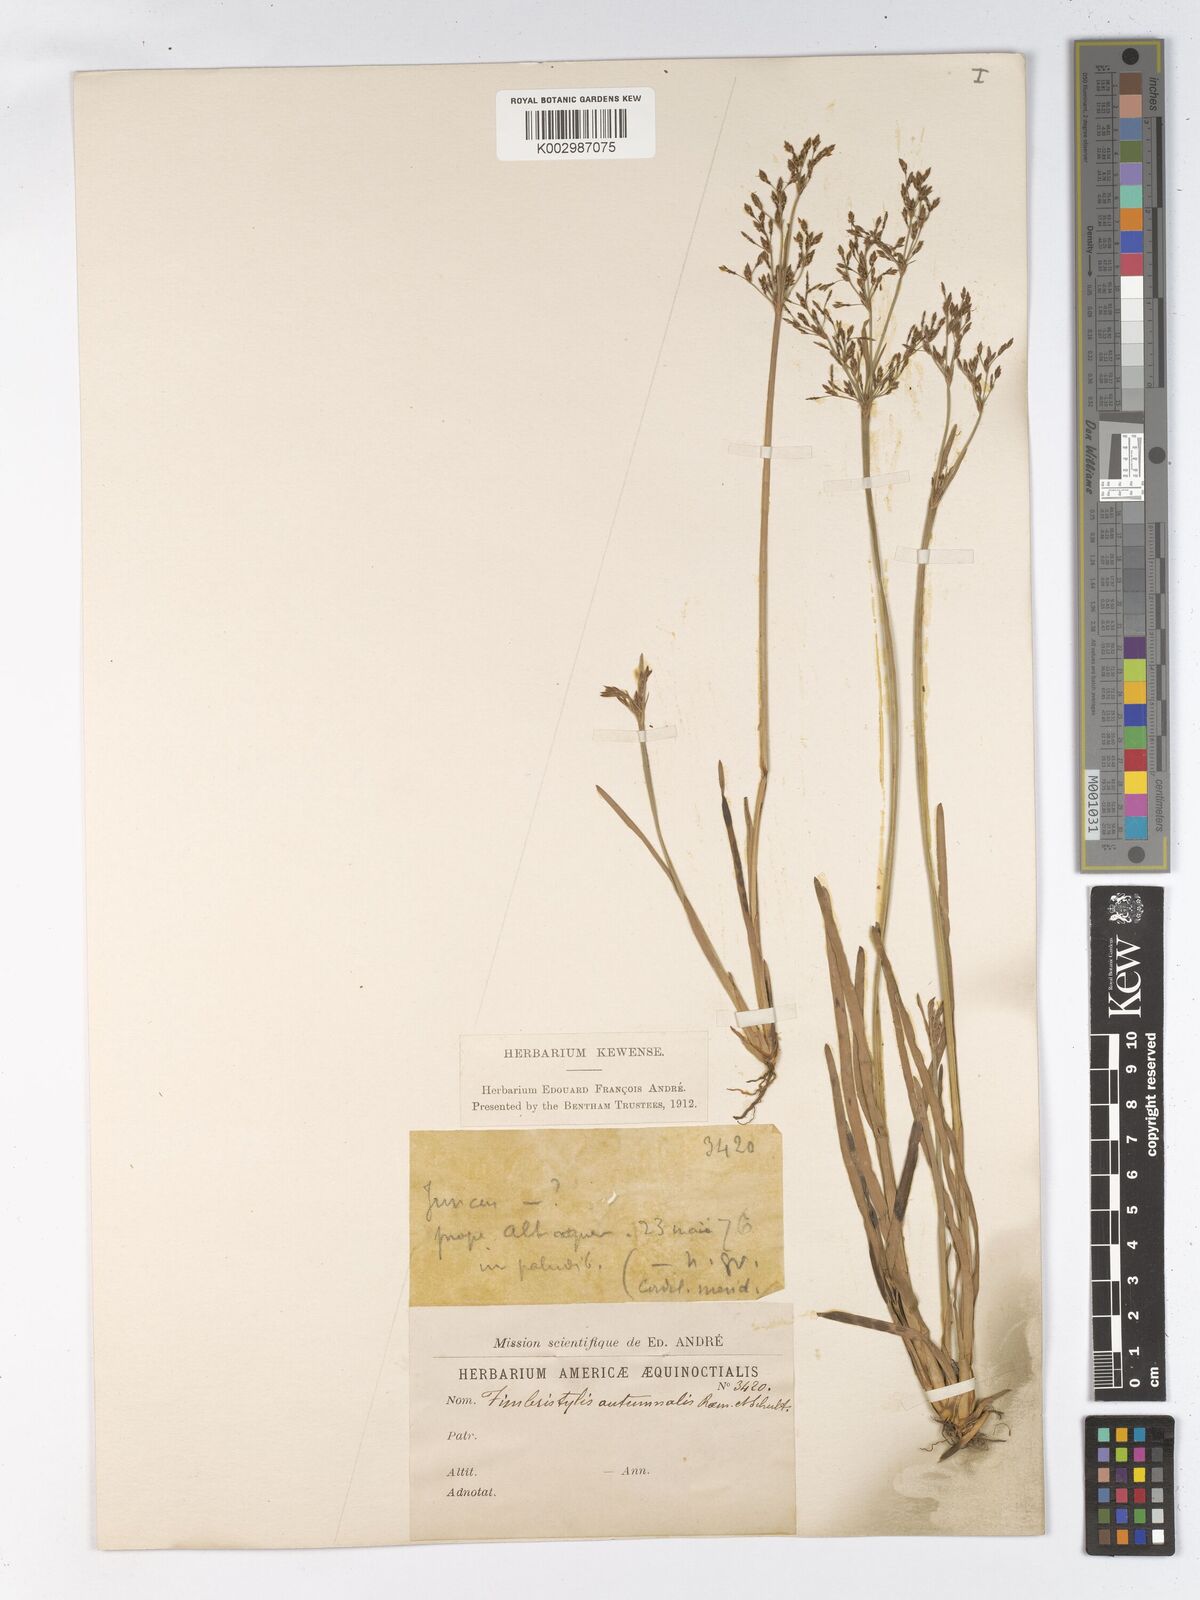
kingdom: Plantae
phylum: Tracheophyta
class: Liliopsida
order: Poales
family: Cyperaceae
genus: Fimbristylis
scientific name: Fimbristylis autumnalis
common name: Slender fimbristylis
